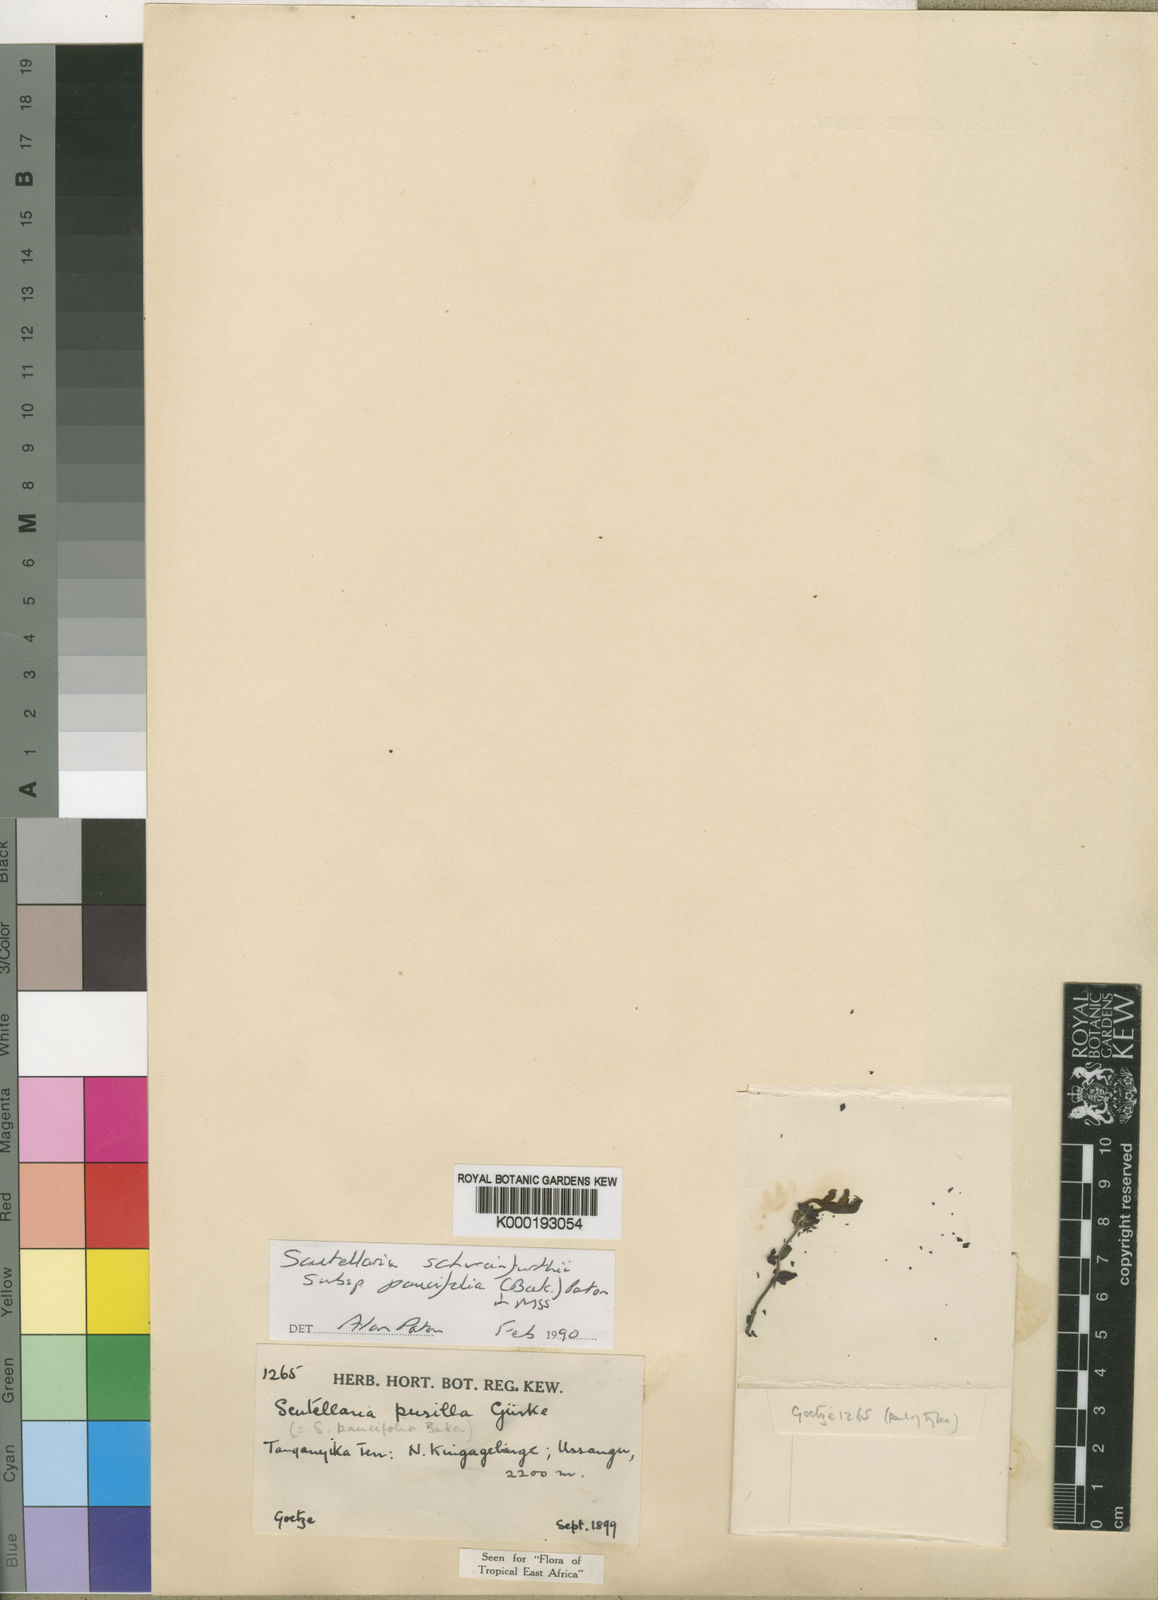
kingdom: Plantae
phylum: Tracheophyta
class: Magnoliopsida
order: Lamiales
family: Lamiaceae
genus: Scutellaria
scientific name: Scutellaria
